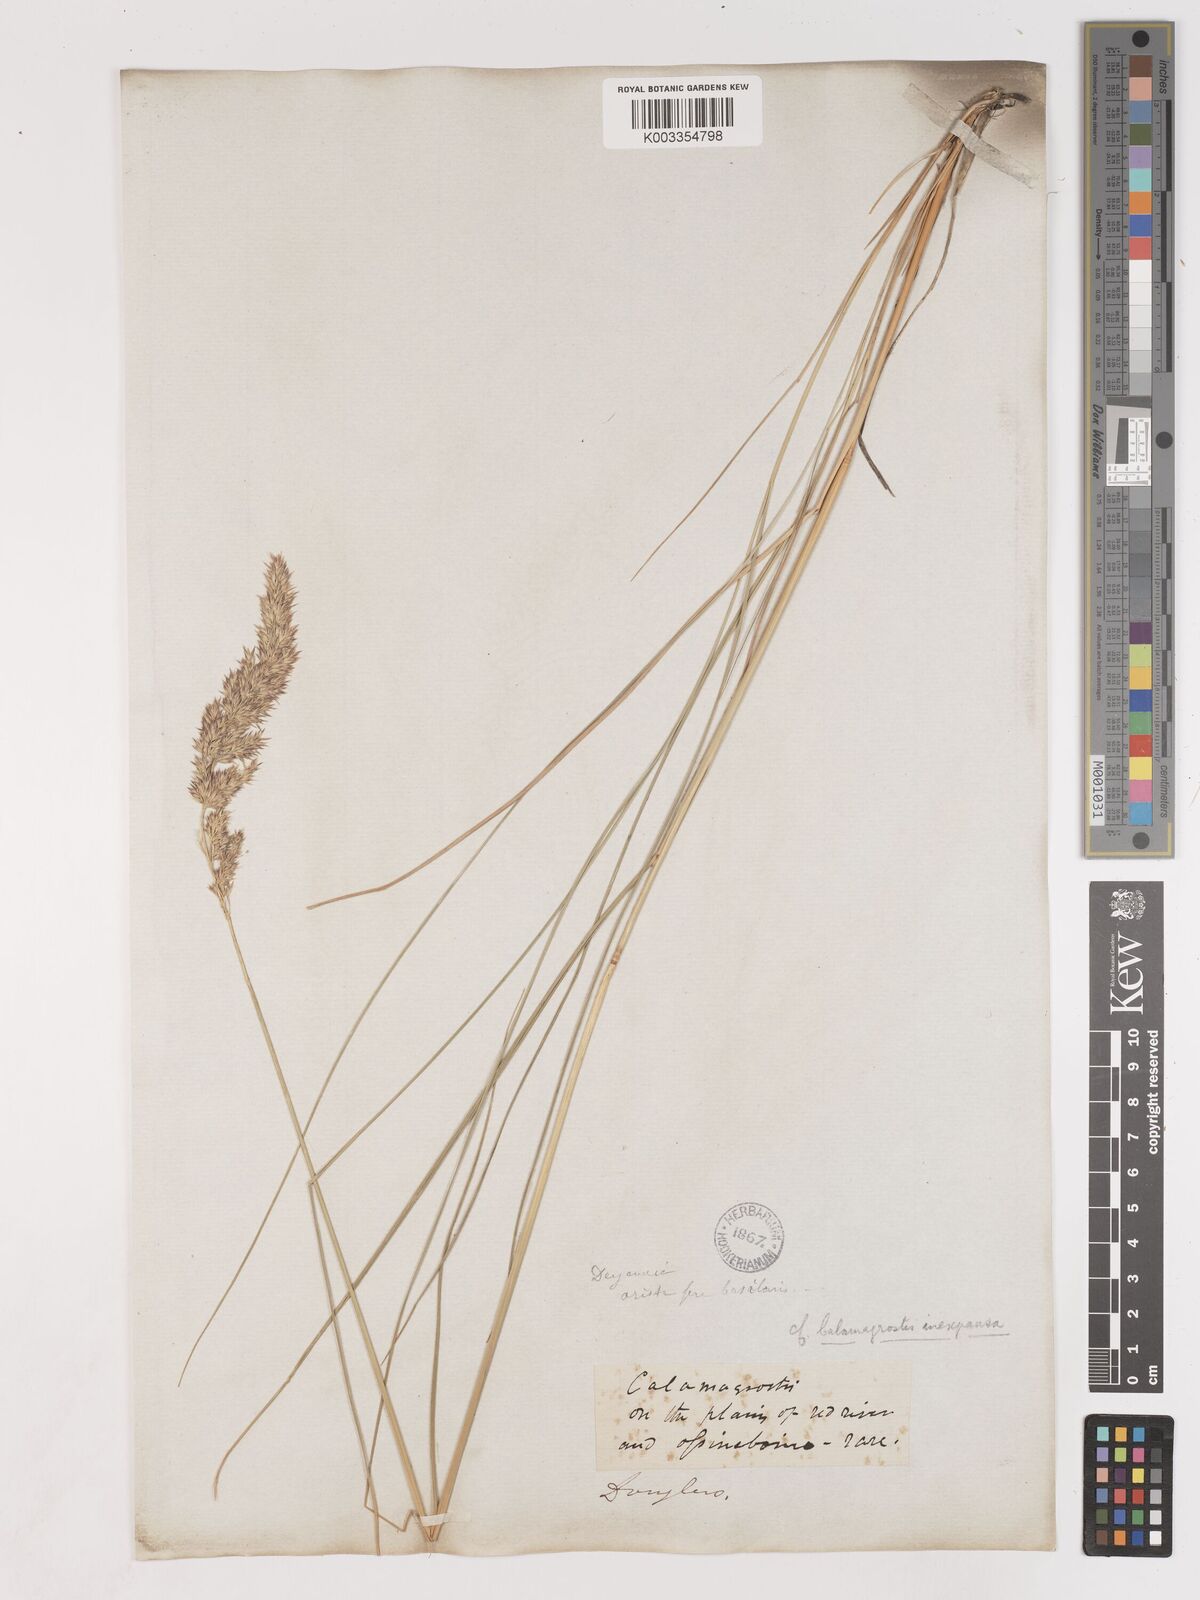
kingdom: Plantae
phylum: Tracheophyta
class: Liliopsida
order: Poales
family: Poaceae
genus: Cinnagrostis
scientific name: Cinnagrostis recta
